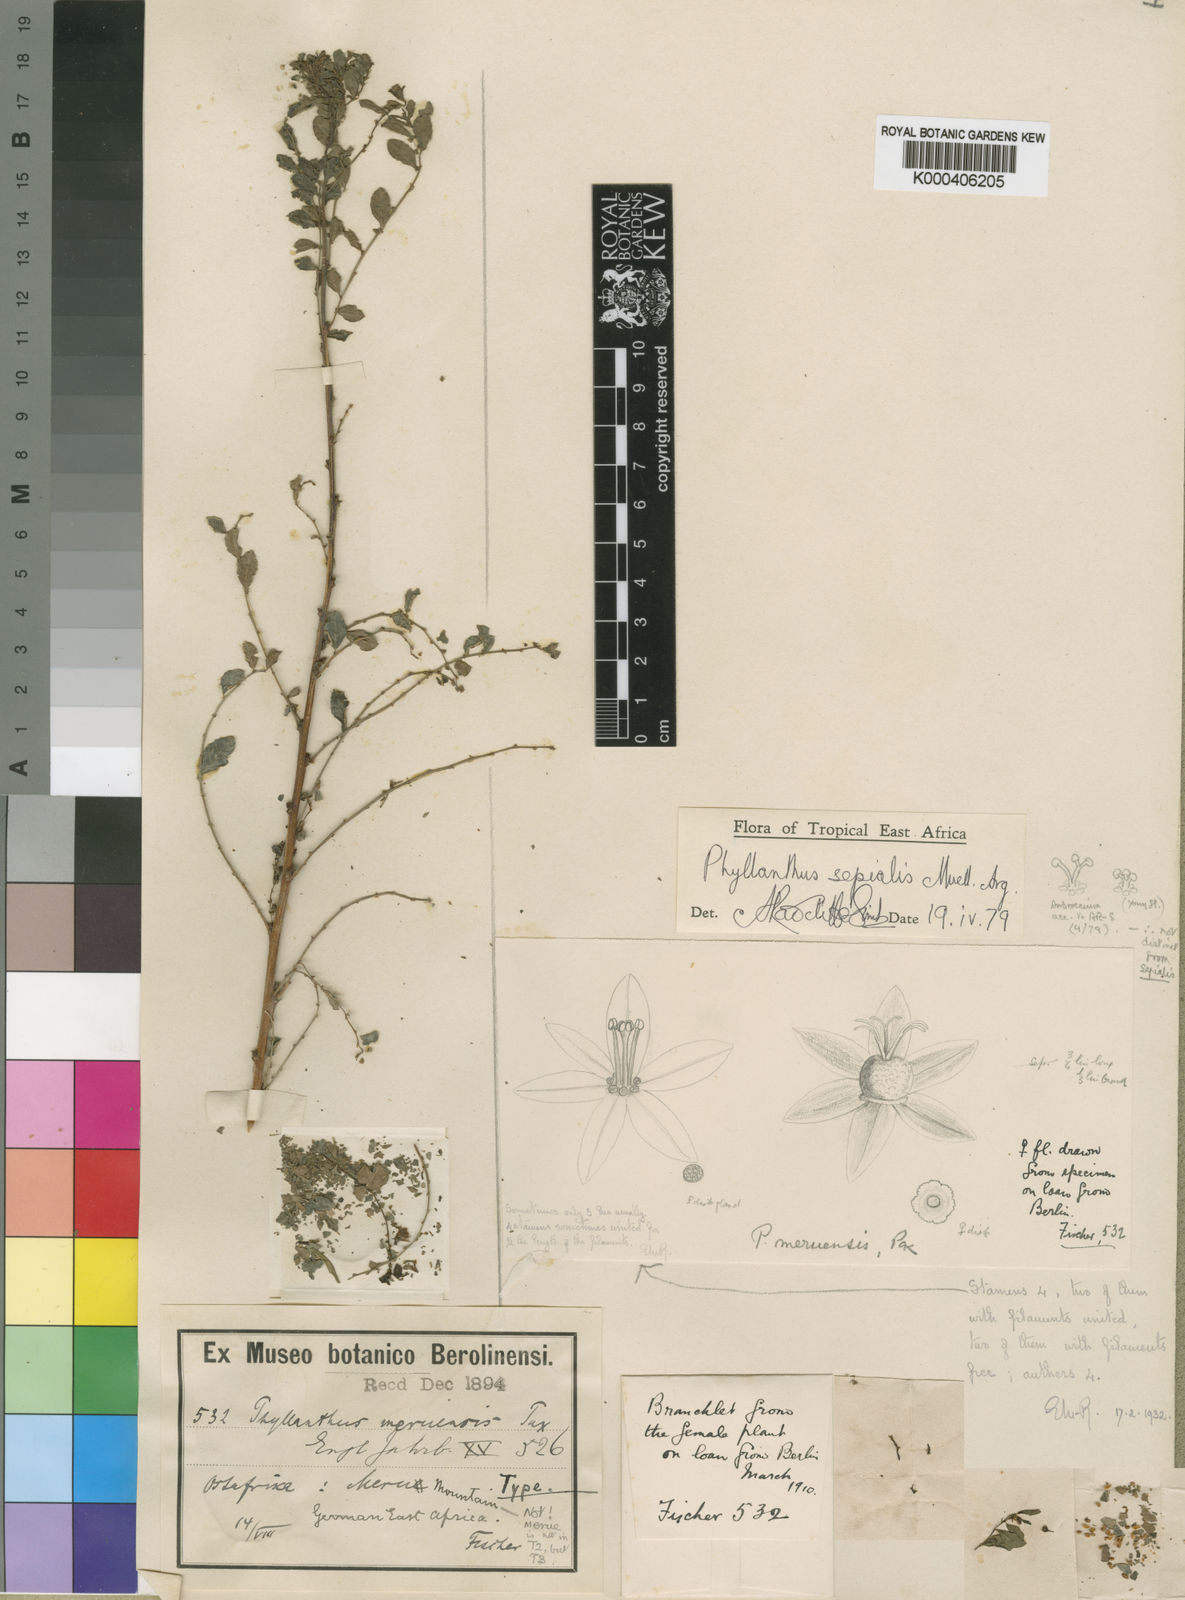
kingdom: Plantae
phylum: Tracheophyta
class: Magnoliopsida
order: Malpighiales
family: Phyllanthaceae
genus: Phyllanthus
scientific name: Phyllanthus
